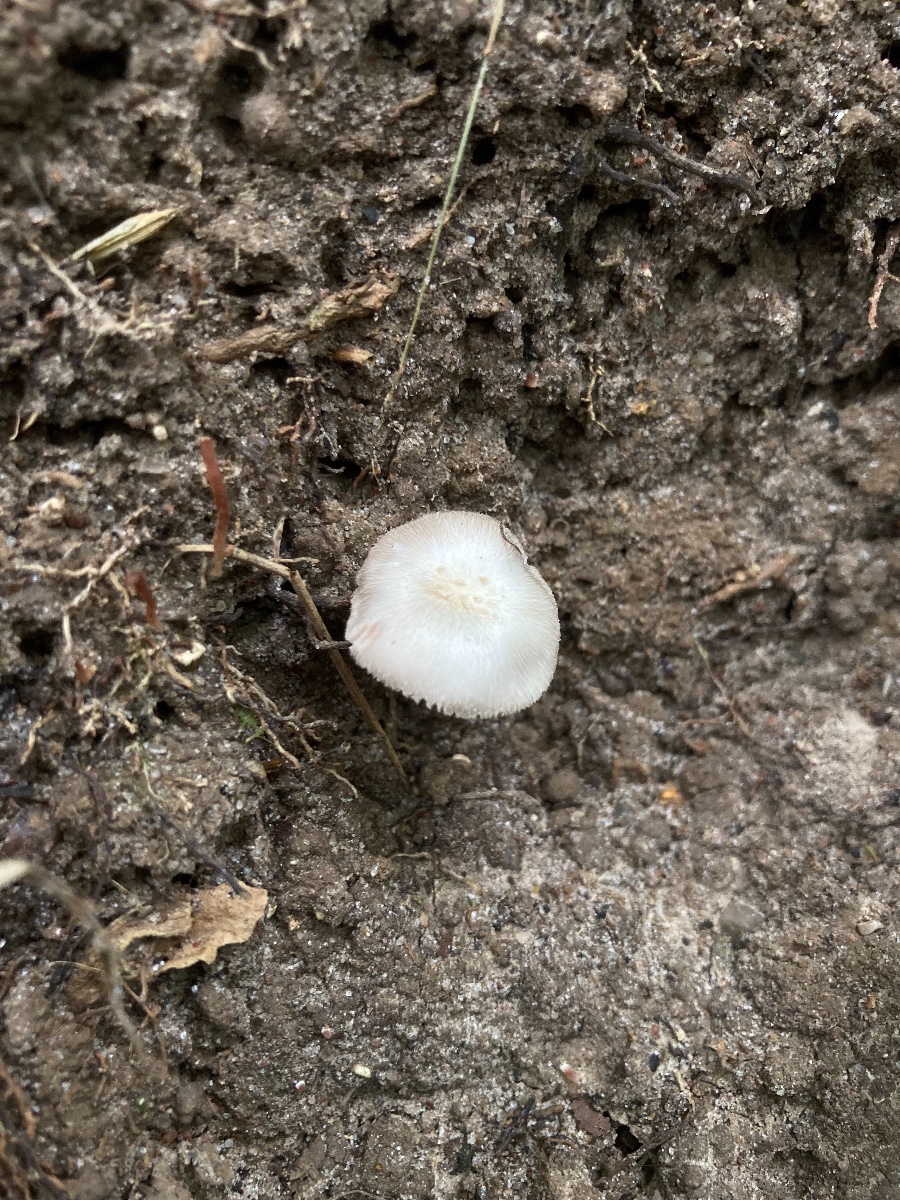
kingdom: Fungi
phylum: Basidiomycota
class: Agaricomycetes
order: Agaricales
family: Pluteaceae
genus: Volvariella
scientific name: Volvariella
